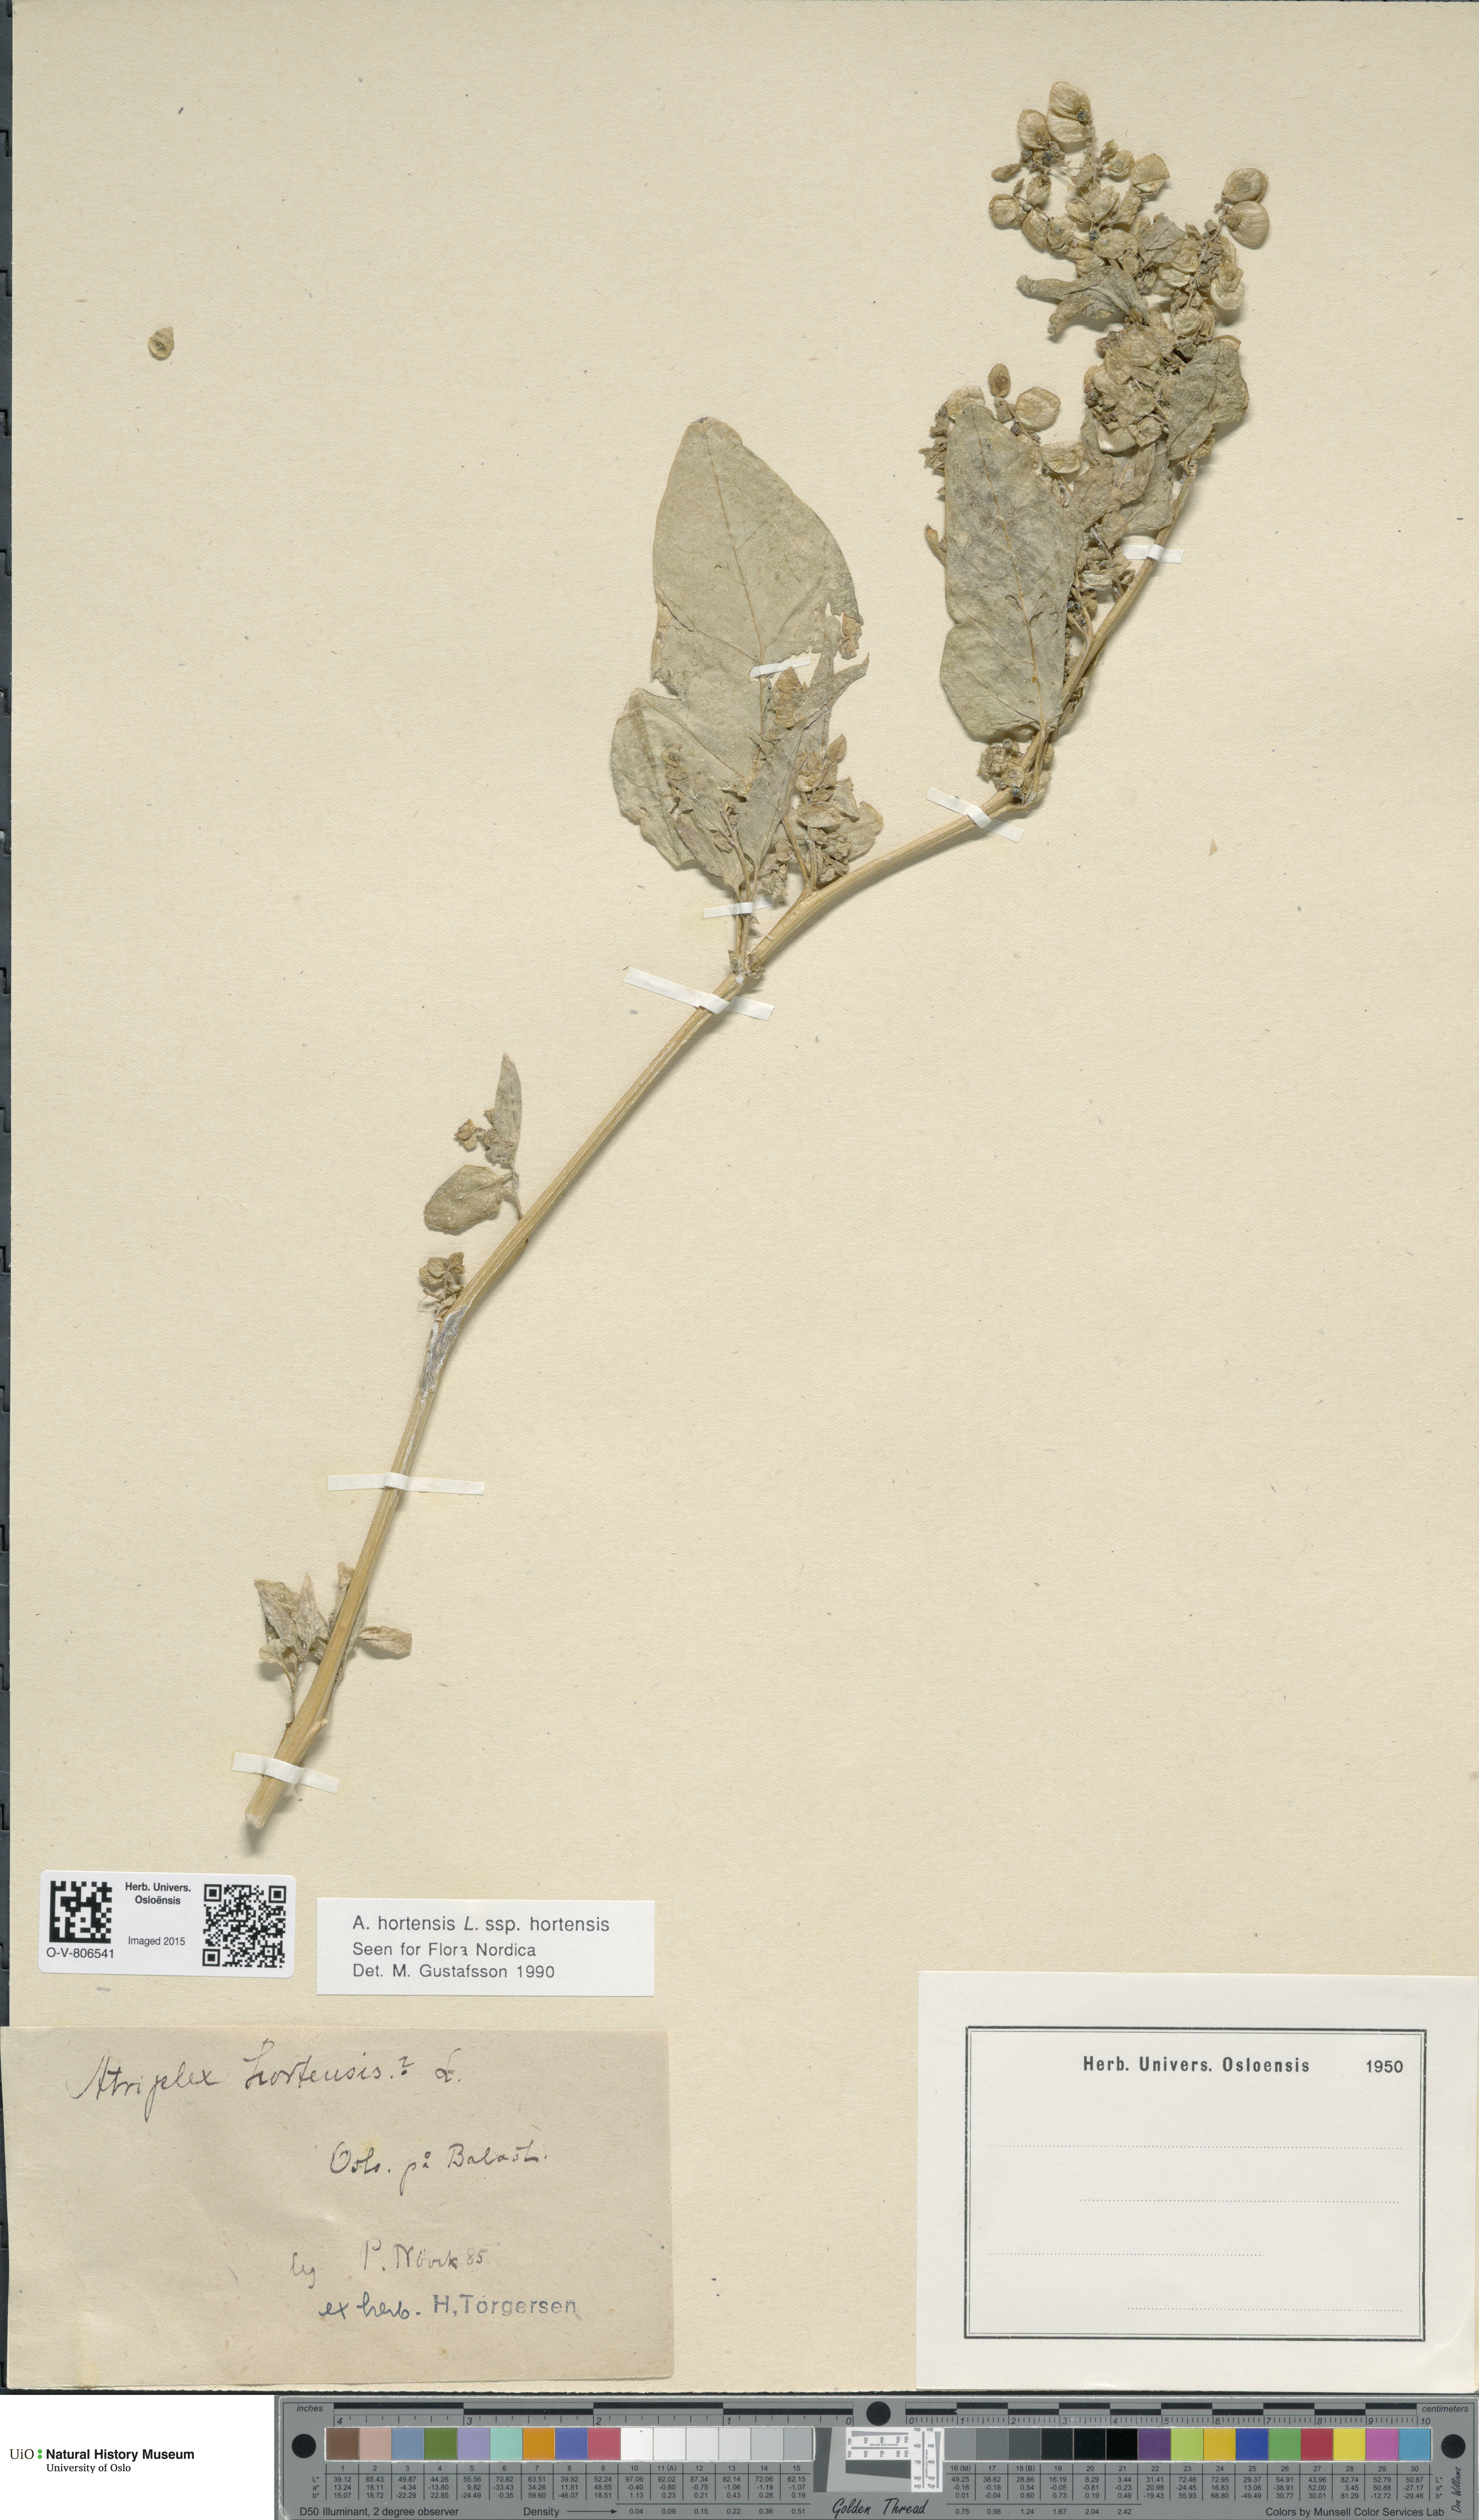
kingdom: Plantae
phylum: Tracheophyta
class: Magnoliopsida
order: Caryophyllales
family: Amaranthaceae
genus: Atriplex
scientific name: Atriplex hortensis
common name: Garden orache
